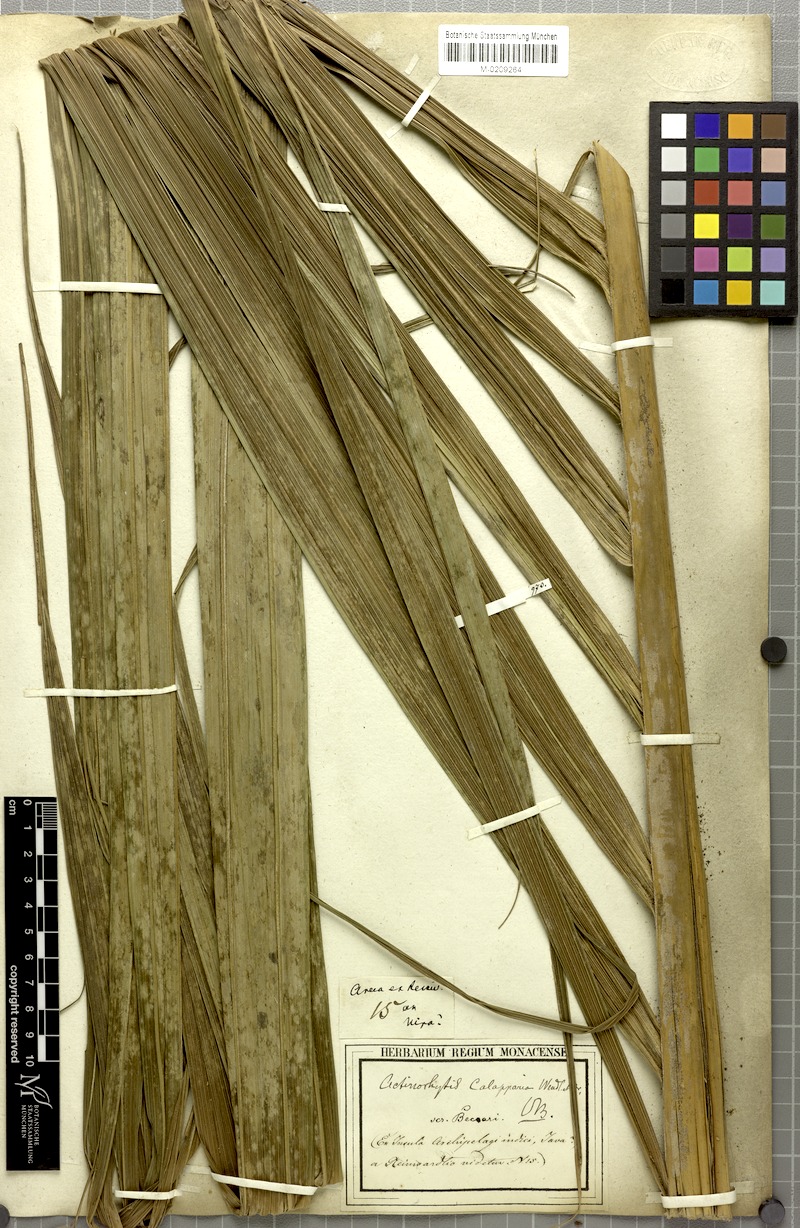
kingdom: Plantae
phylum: Tracheophyta
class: Liliopsida
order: Arecales
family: Arecaceae
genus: Actinorhytis
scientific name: Actinorhytis calapparia
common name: Calappa palm
